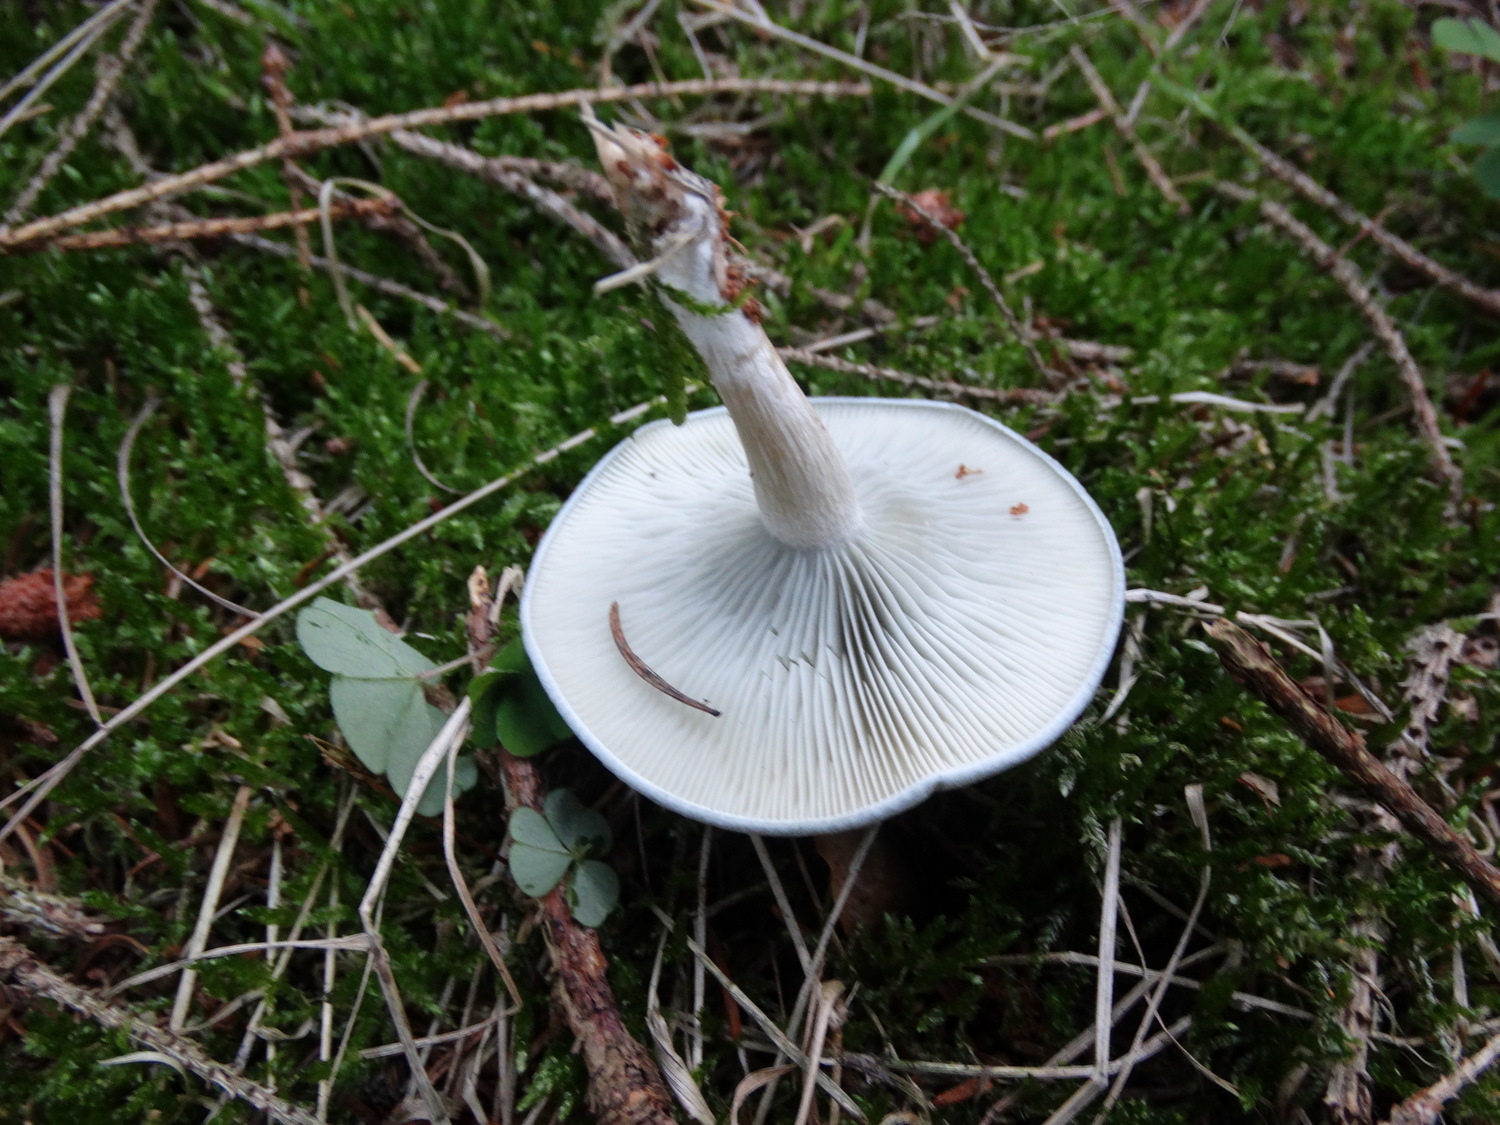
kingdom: Fungi
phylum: Basidiomycota
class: Agaricomycetes
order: Agaricales
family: Tricholomataceae
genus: Clitocybe
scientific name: Clitocybe odora
